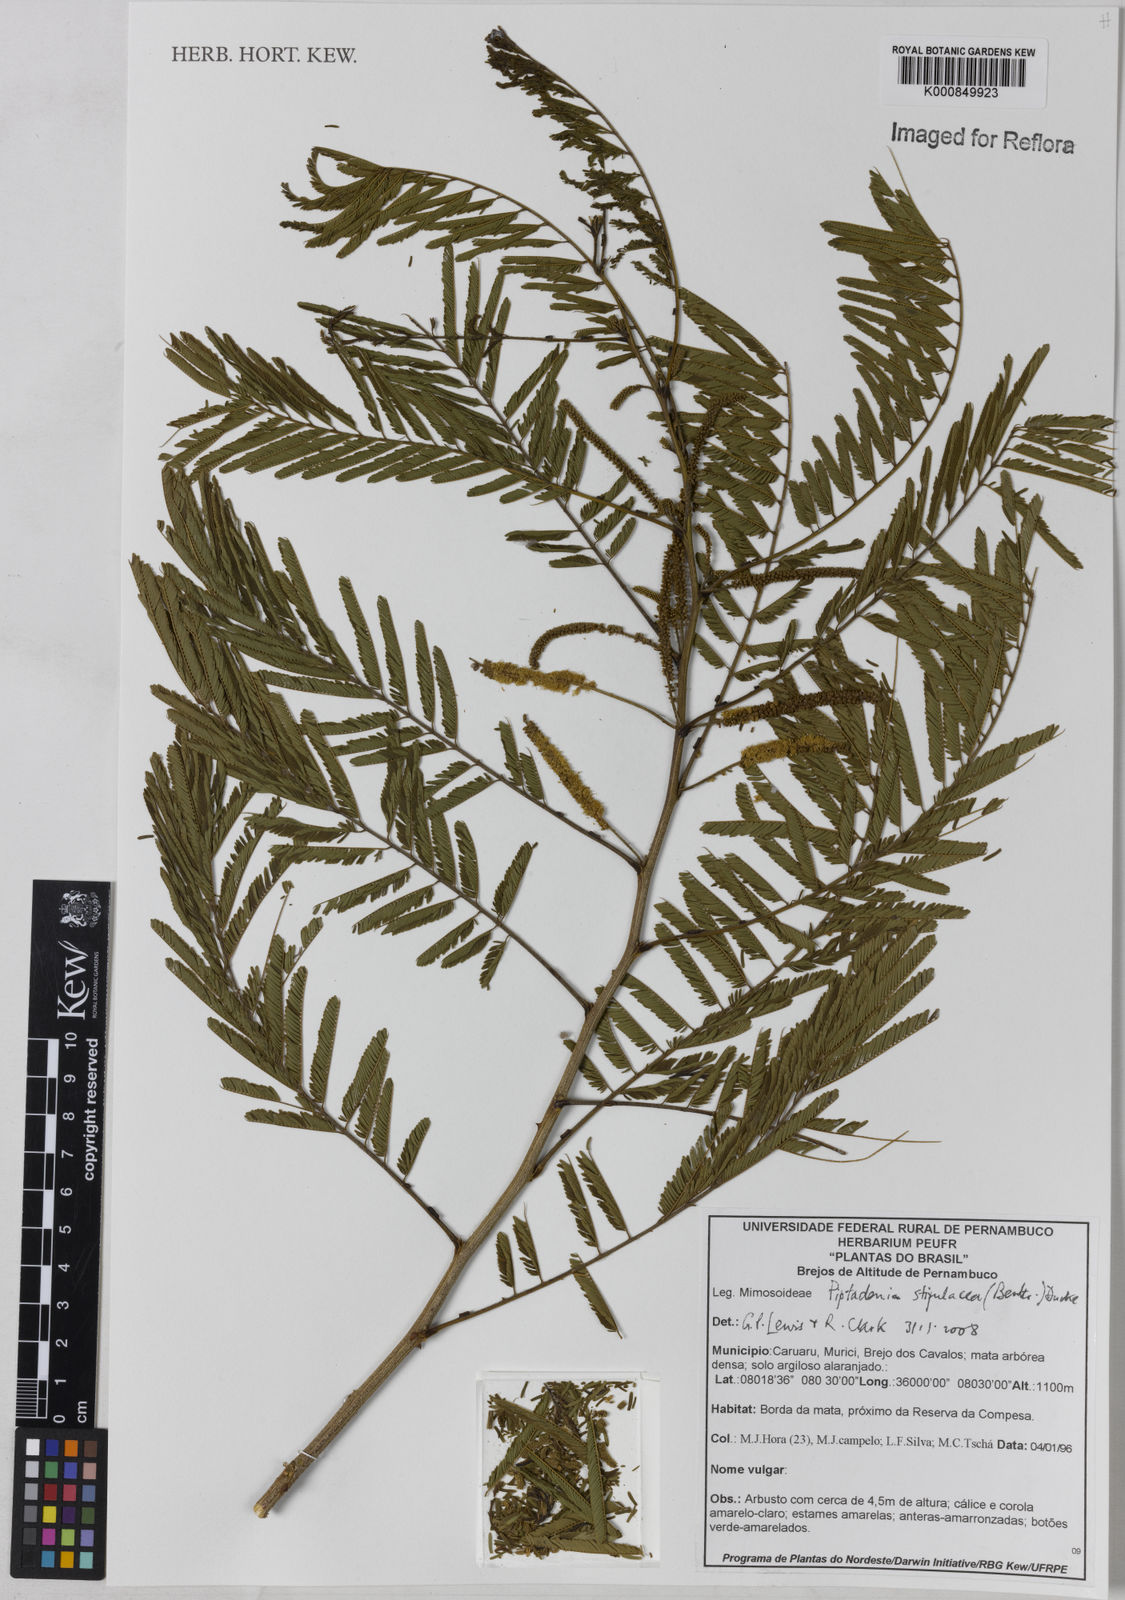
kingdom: Plantae
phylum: Tracheophyta
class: Magnoliopsida
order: Fabales
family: Fabaceae
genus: Piptadenia
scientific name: Piptadenia retusa
